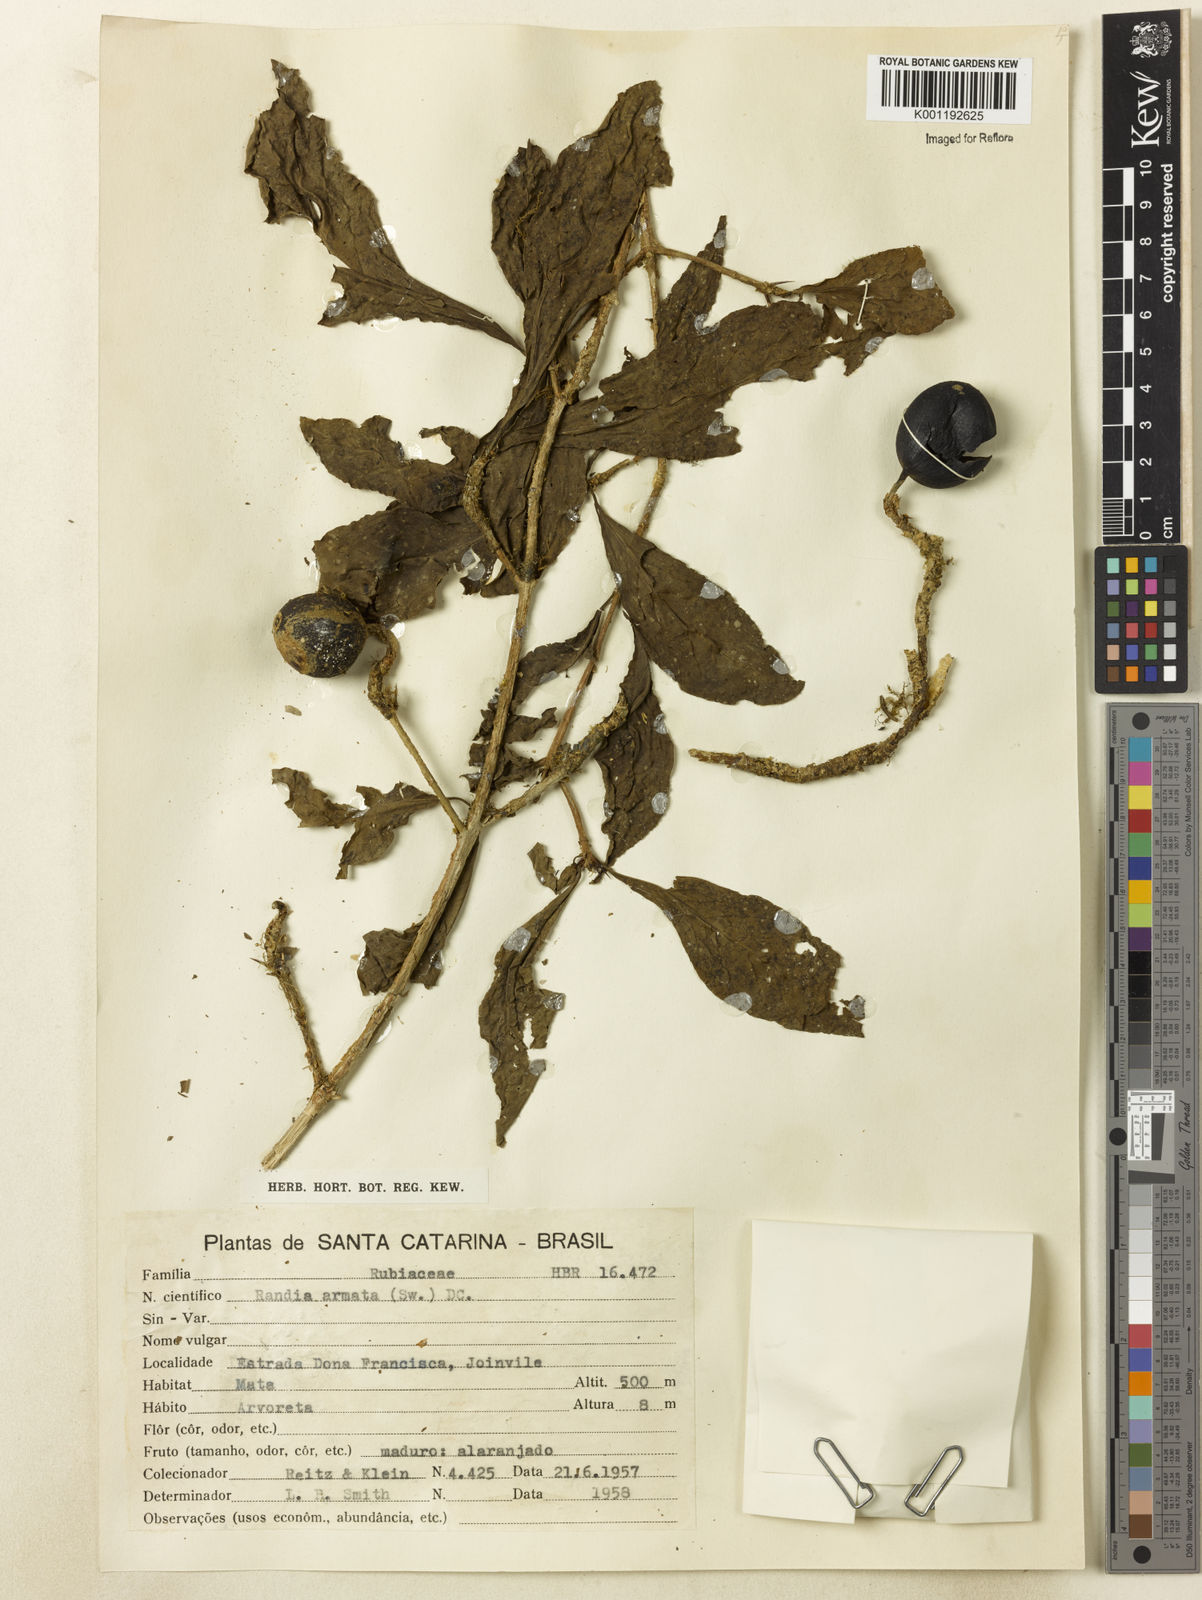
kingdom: Plantae
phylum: Tracheophyta
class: Magnoliopsida
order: Gentianales
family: Rubiaceae
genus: Randia
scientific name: Randia armata
